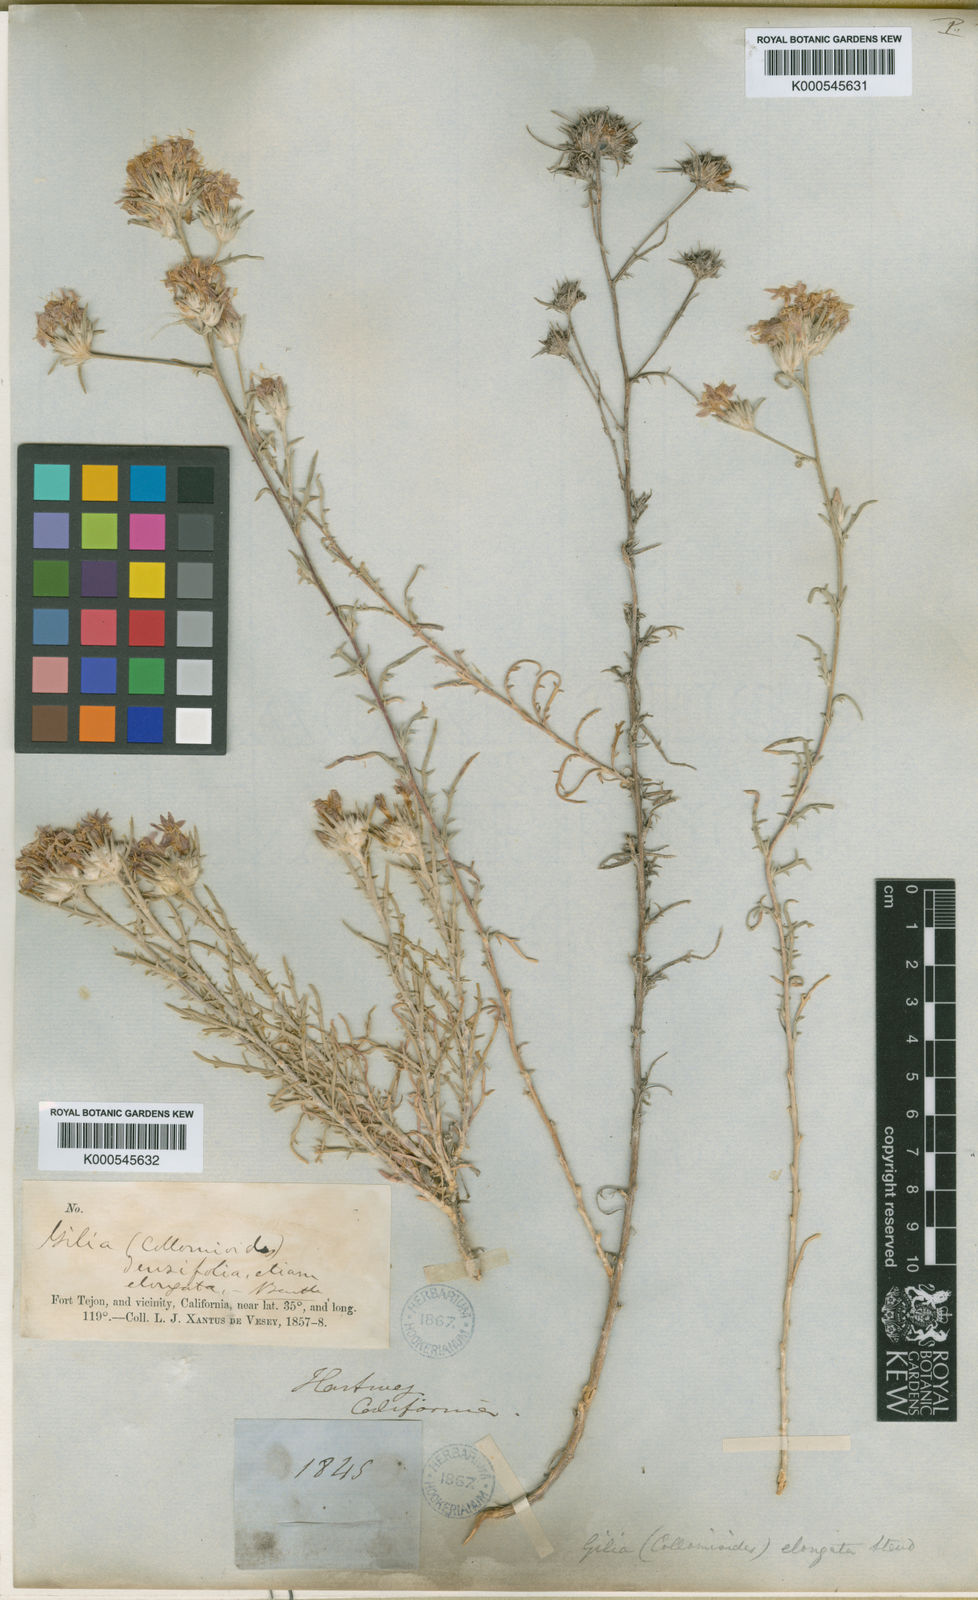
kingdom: Plantae
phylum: Tracheophyta
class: Magnoliopsida
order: Ericales
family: Polemoniaceae
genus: Eriastrum
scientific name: Eriastrum densifolium
